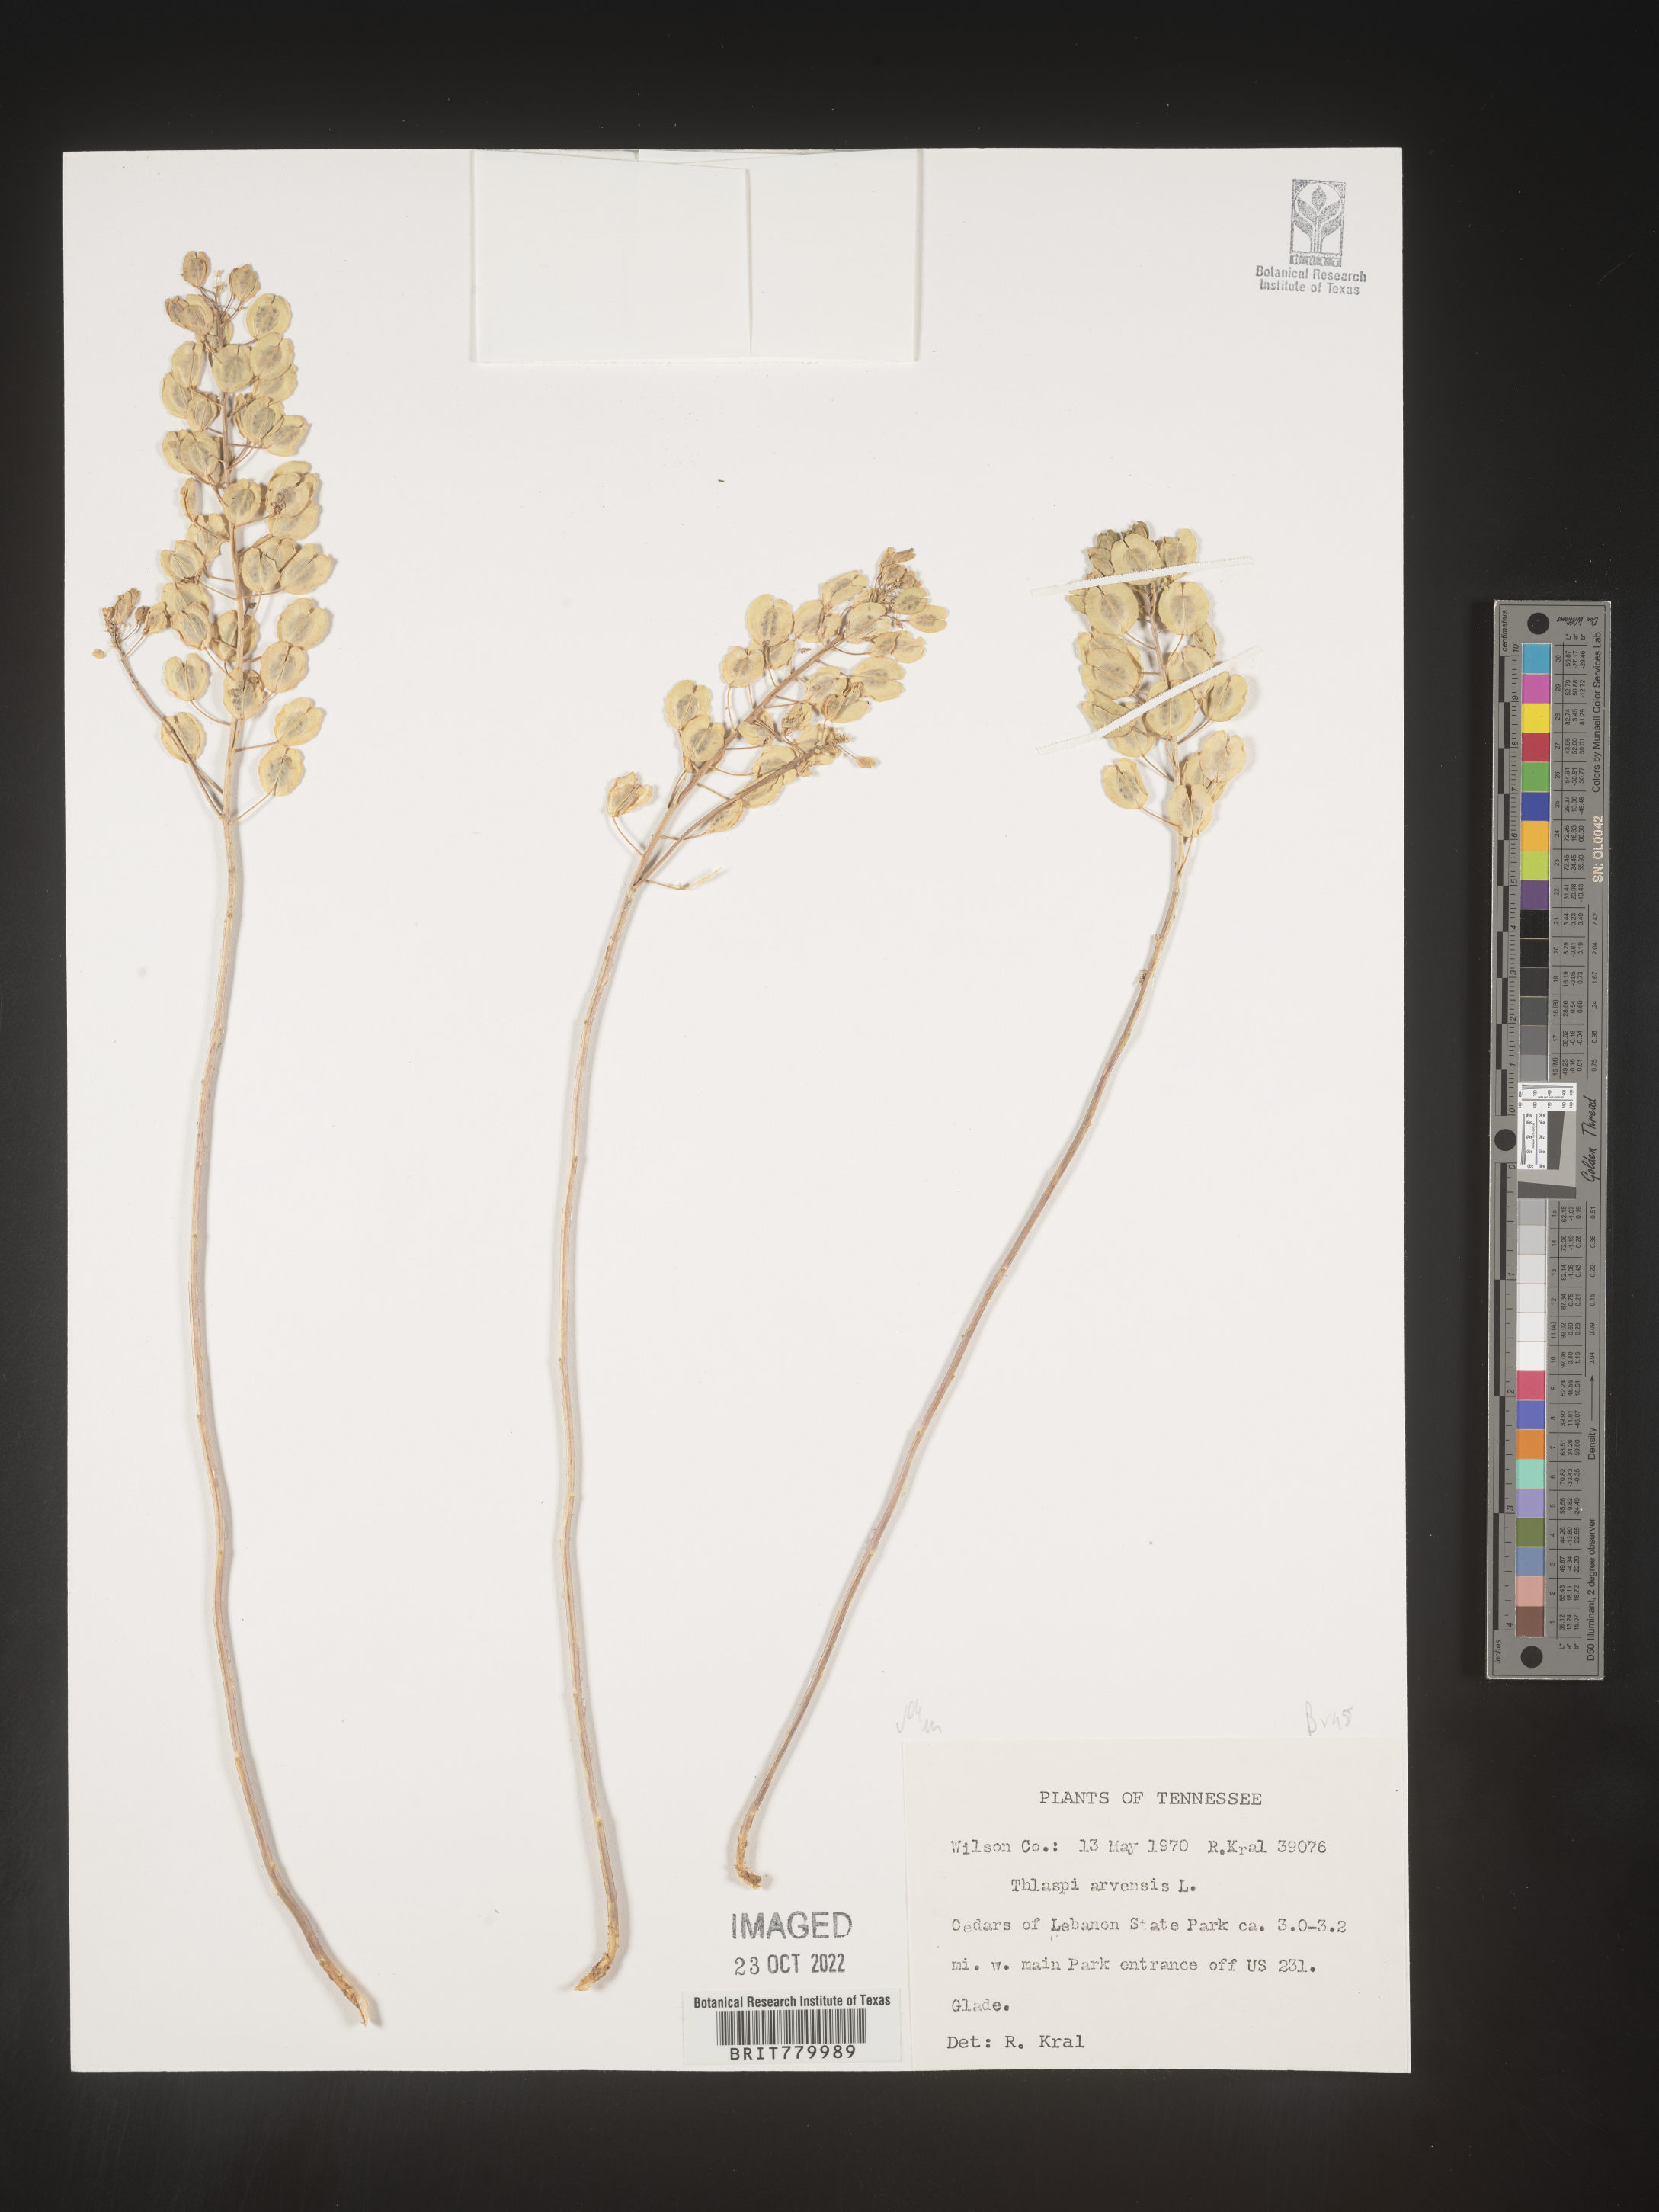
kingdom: Plantae
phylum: Tracheophyta
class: Magnoliopsida
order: Brassicales
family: Brassicaceae
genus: Thlaspi
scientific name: Thlaspi arvense
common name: Field pennycress
